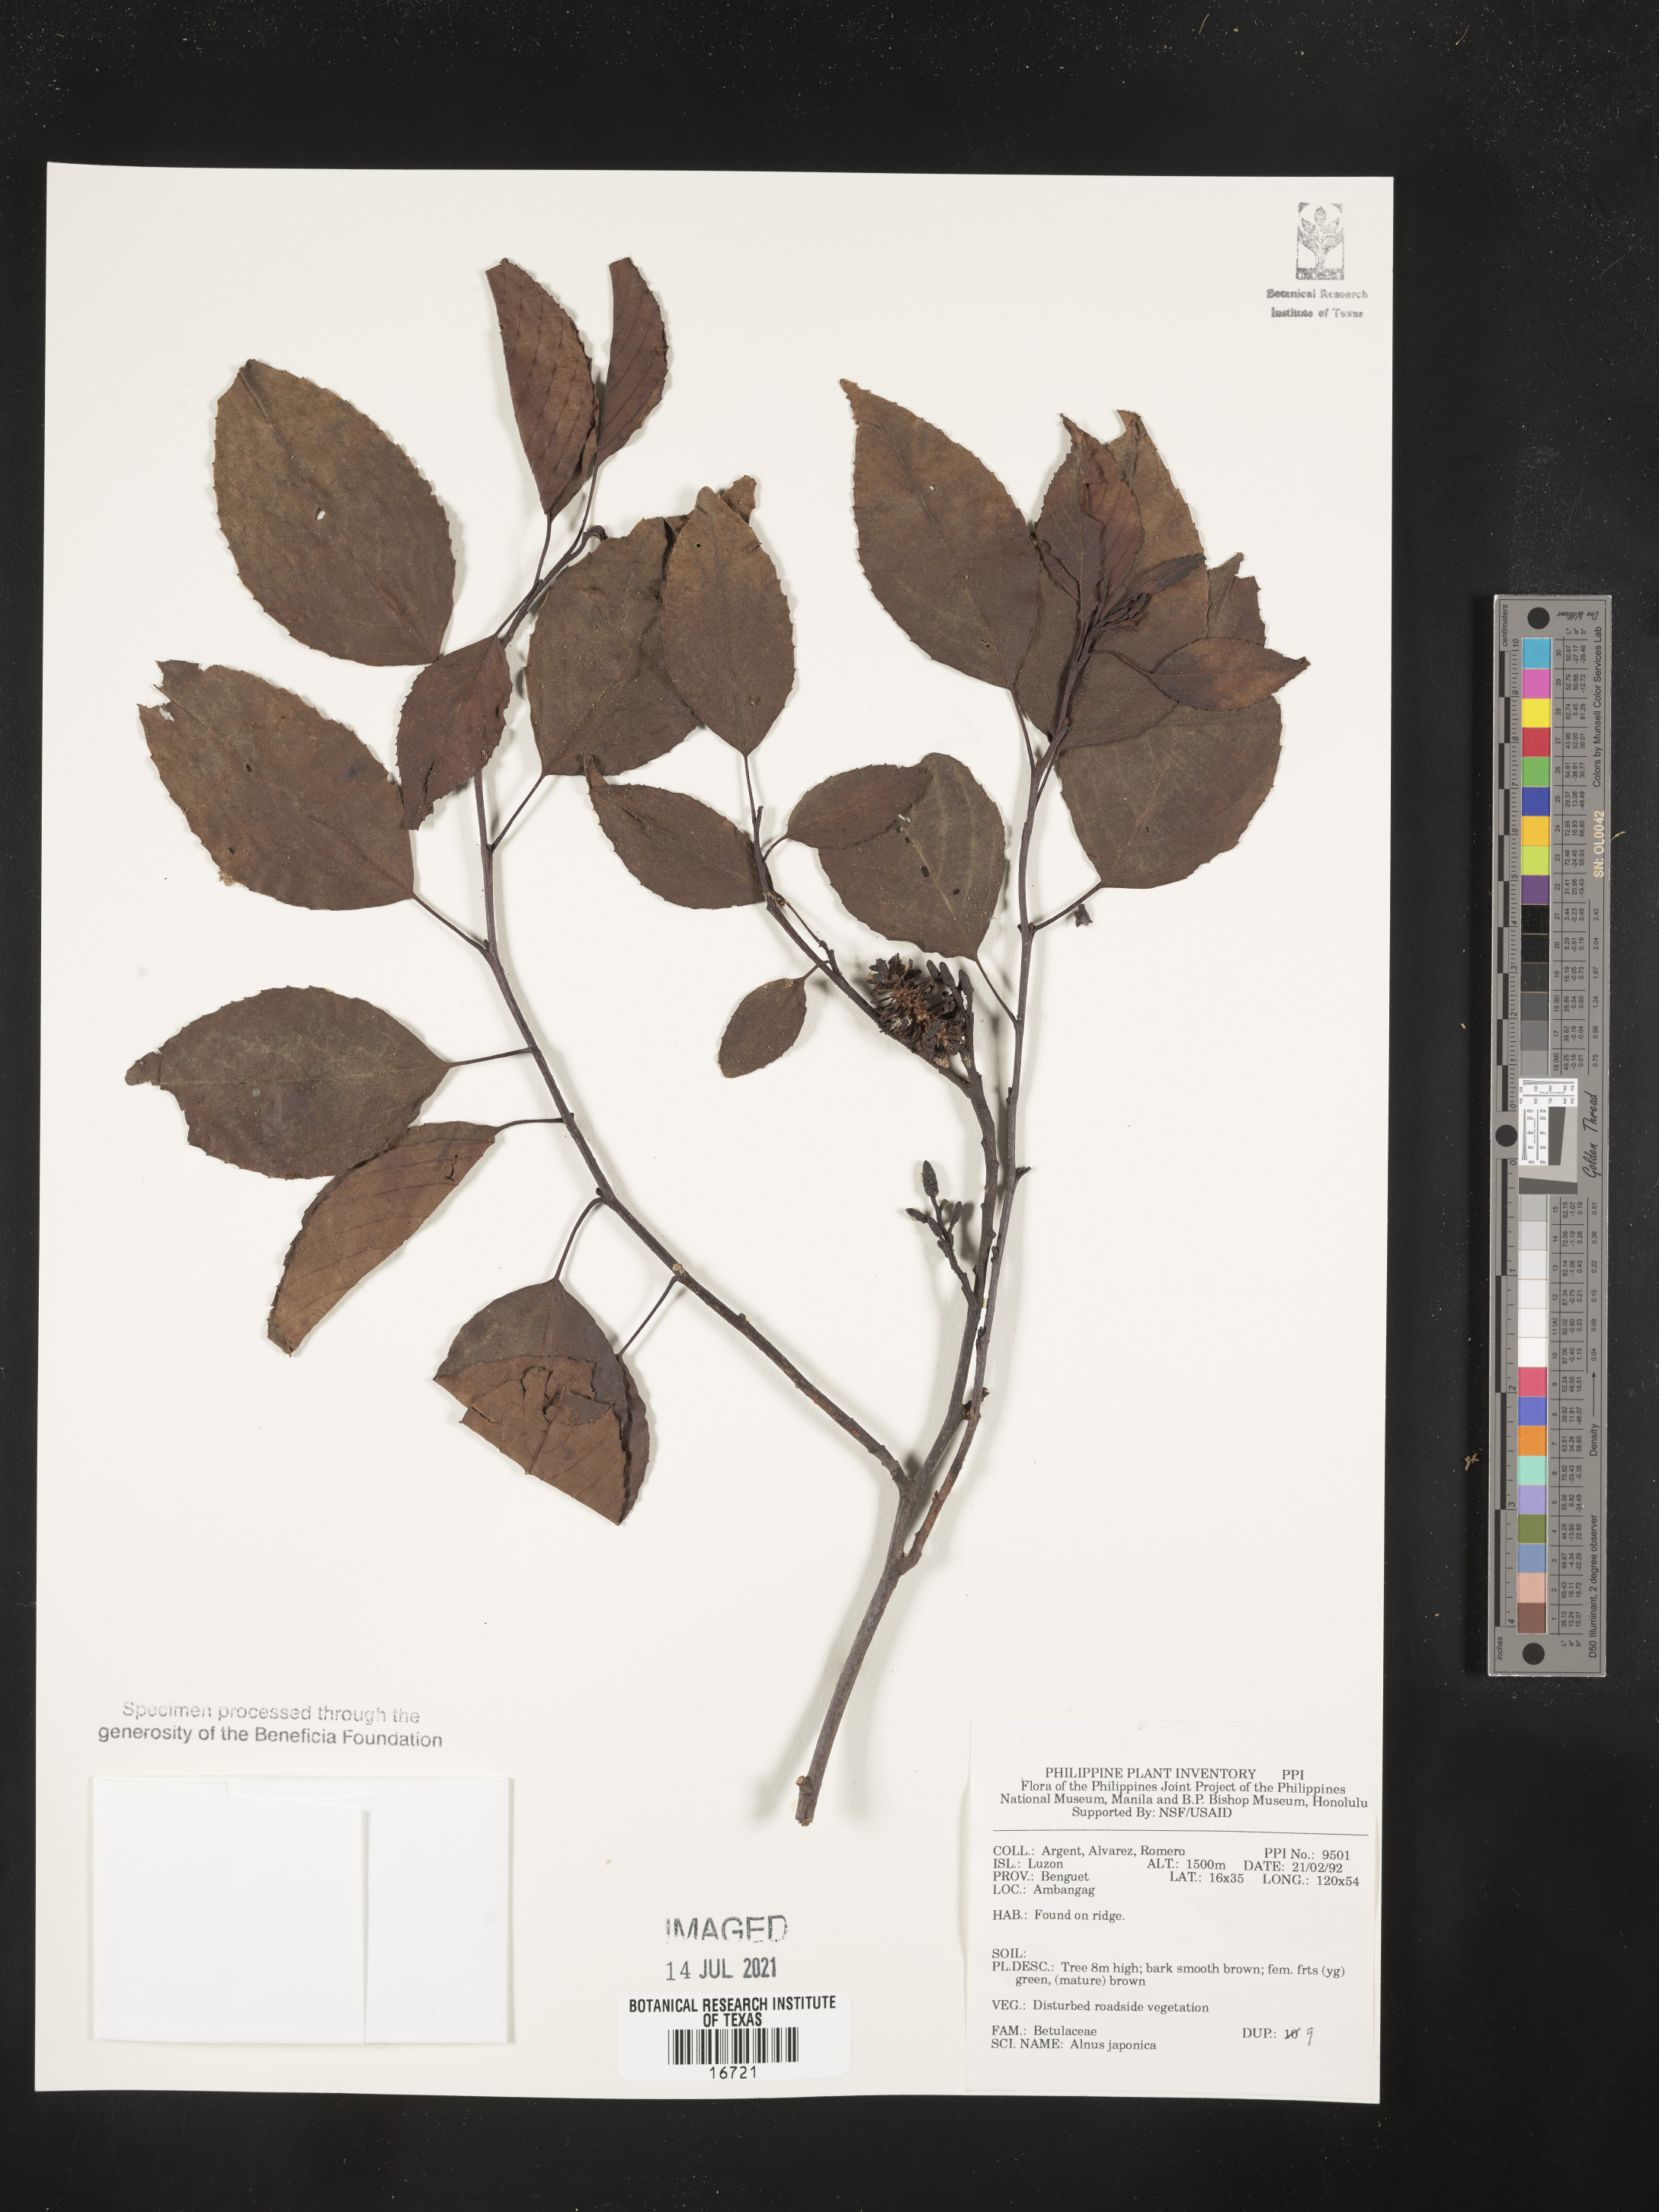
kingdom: Plantae
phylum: Tracheophyta
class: Magnoliopsida
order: Fagales
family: Betulaceae
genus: Alnus
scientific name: Alnus japonica
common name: Japanese alder
